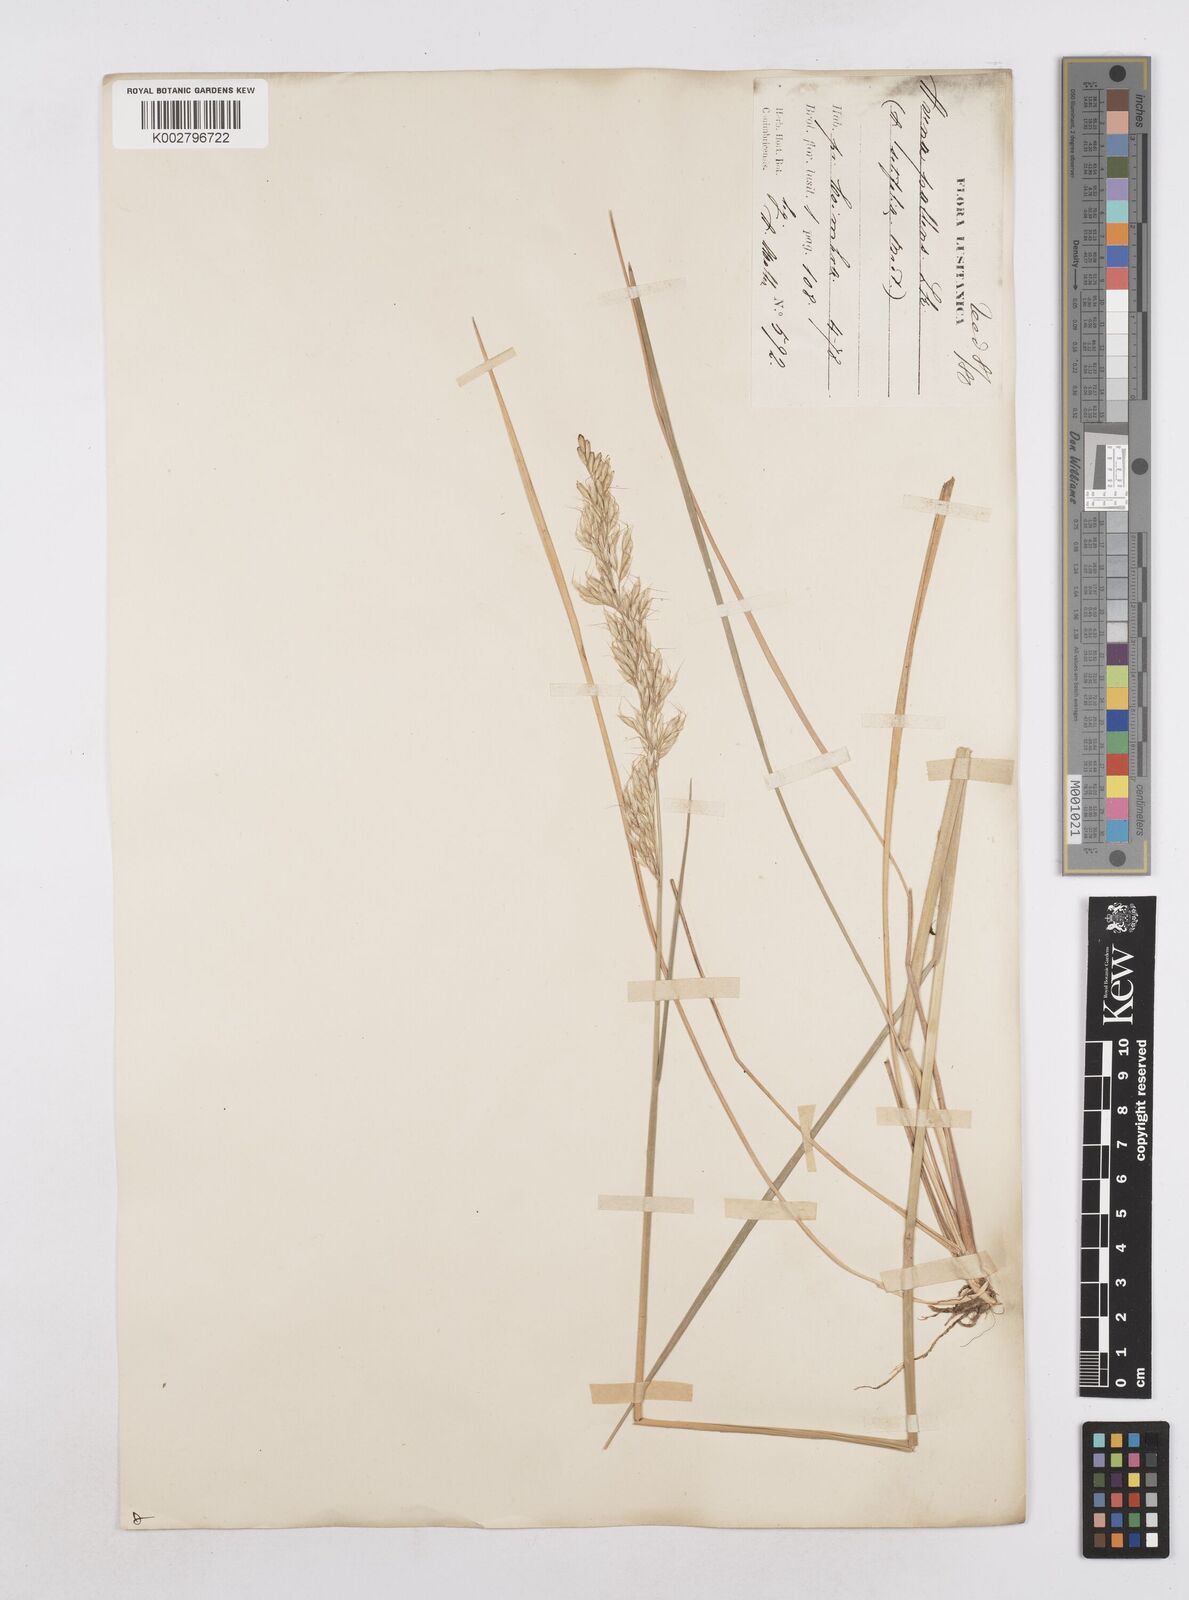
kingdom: Plantae
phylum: Tracheophyta
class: Liliopsida
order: Poales
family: Poaceae
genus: Arrhenatherum
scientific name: Arrhenatherum longifolium
